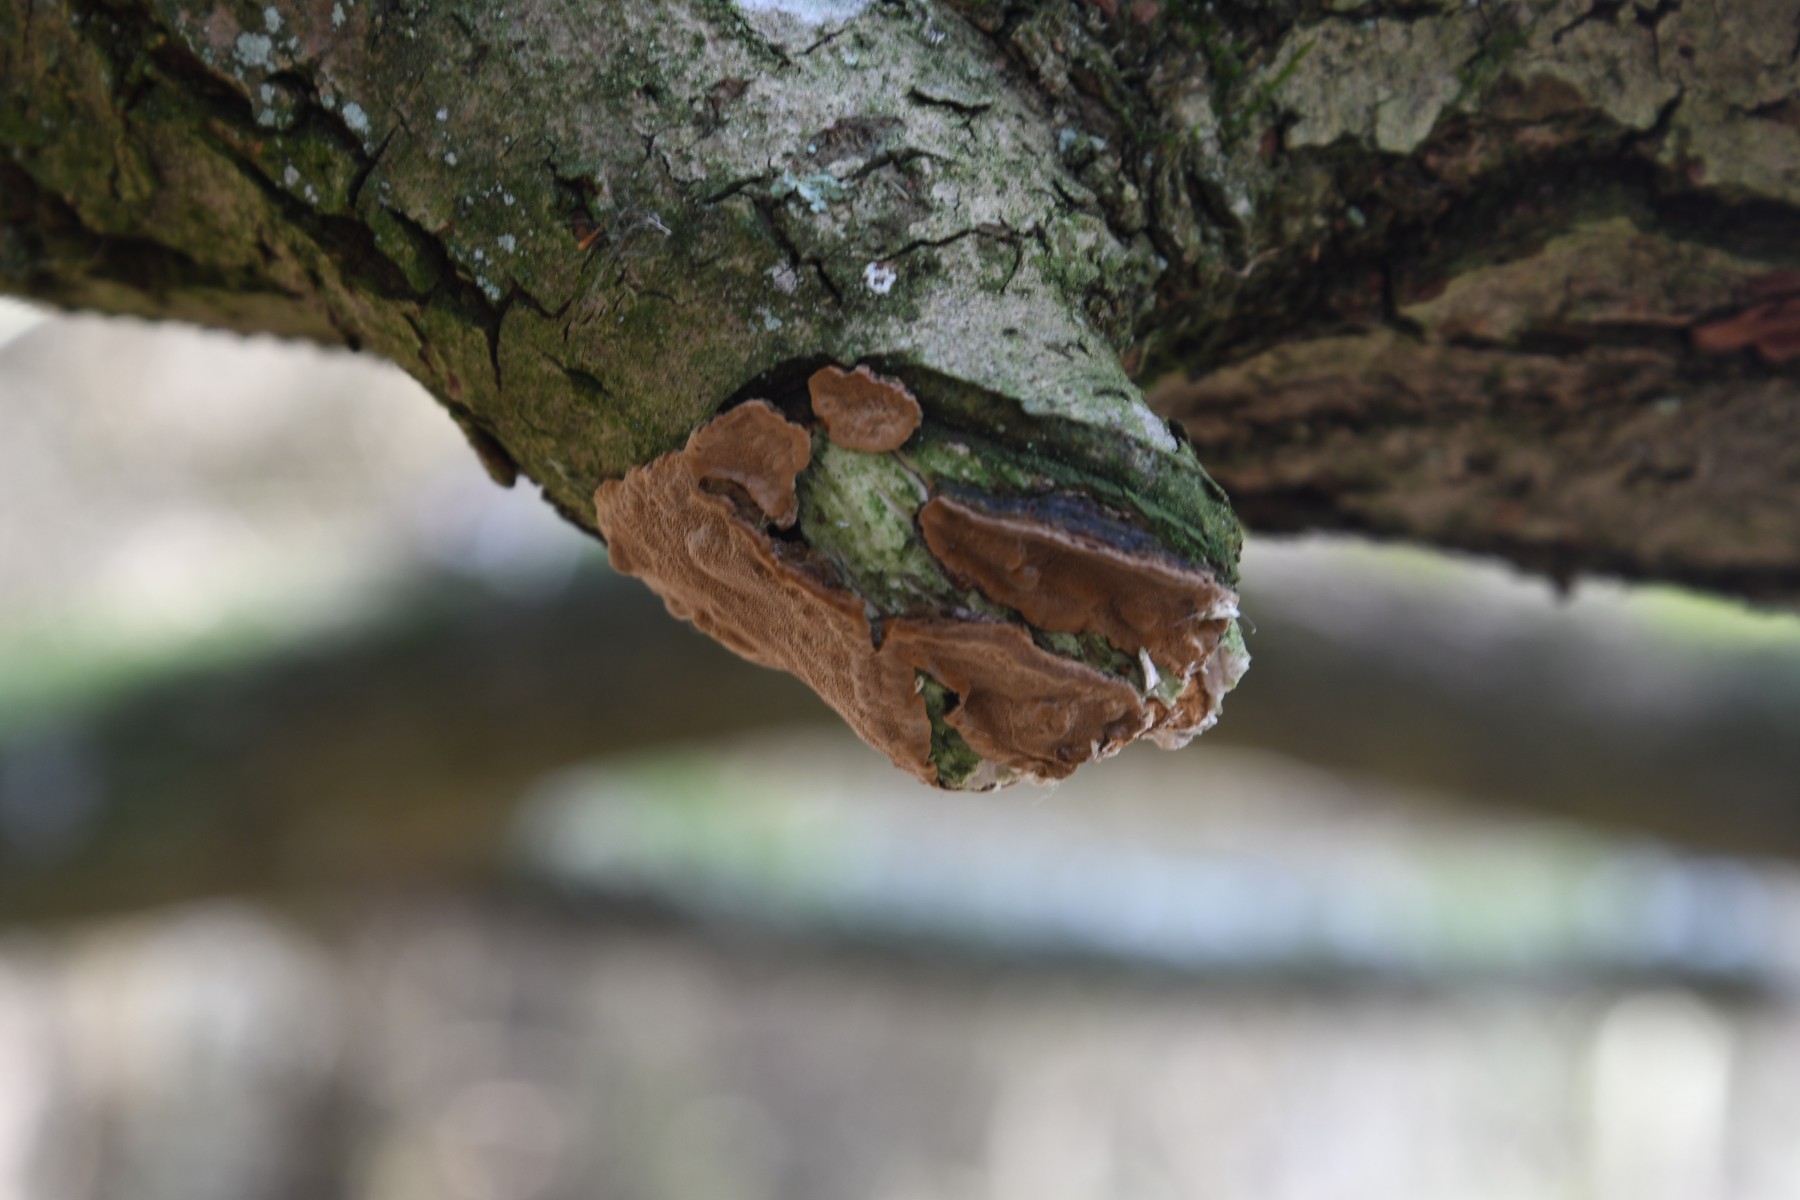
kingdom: Fungi
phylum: Basidiomycota
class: Agaricomycetes
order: Hymenochaetales
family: Hymenochaetaceae
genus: Phellinopsis
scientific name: Phellinopsis conchata
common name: pile-ildporesvamp
